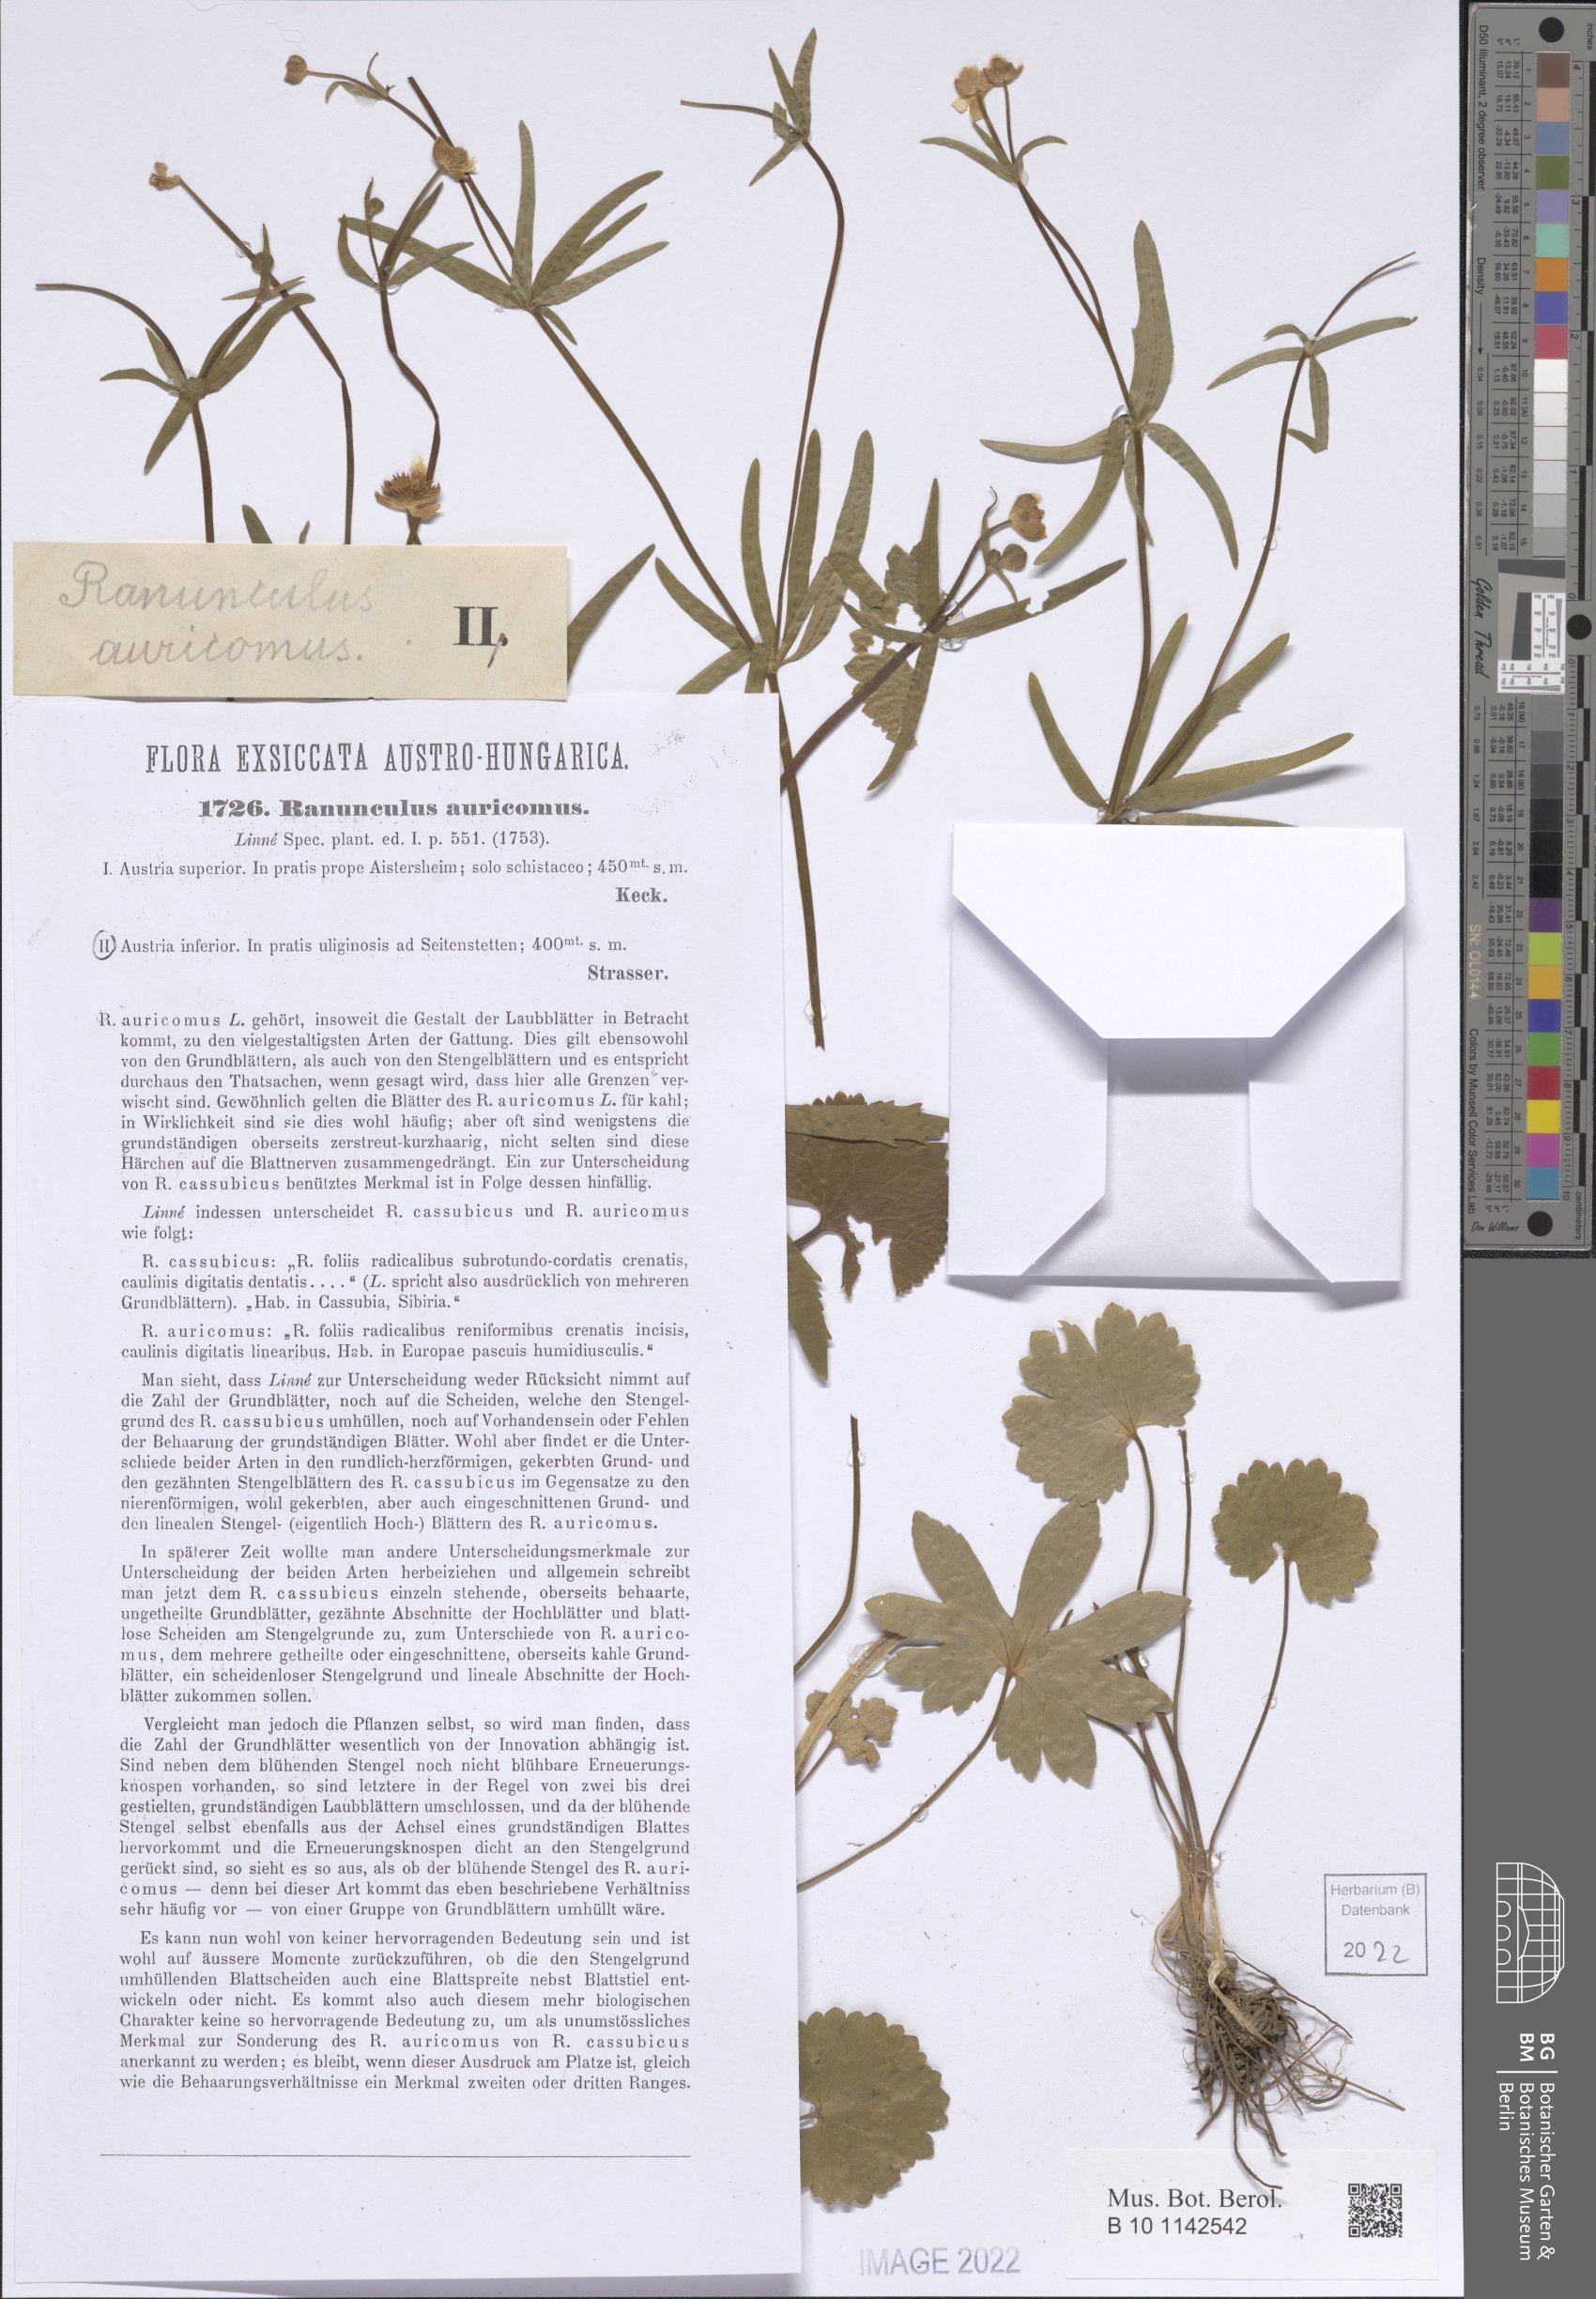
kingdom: Plantae
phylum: Tracheophyta
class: Magnoliopsida
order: Ranunculales
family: Ranunculaceae
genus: Ranunculus
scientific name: Ranunculus auricomus
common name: Goldilocks buttercup
